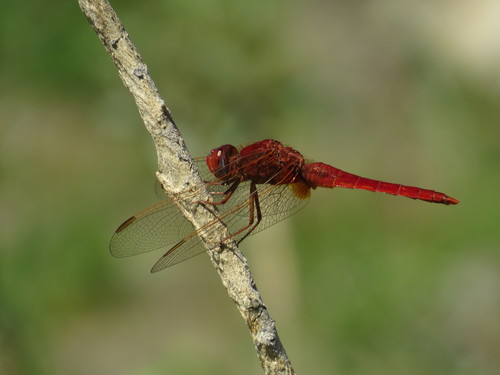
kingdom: Animalia
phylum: Arthropoda
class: Insecta
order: Odonata
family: Libellulidae
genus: Crocothemis
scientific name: Crocothemis erythraea
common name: Scarlet dragonfly
